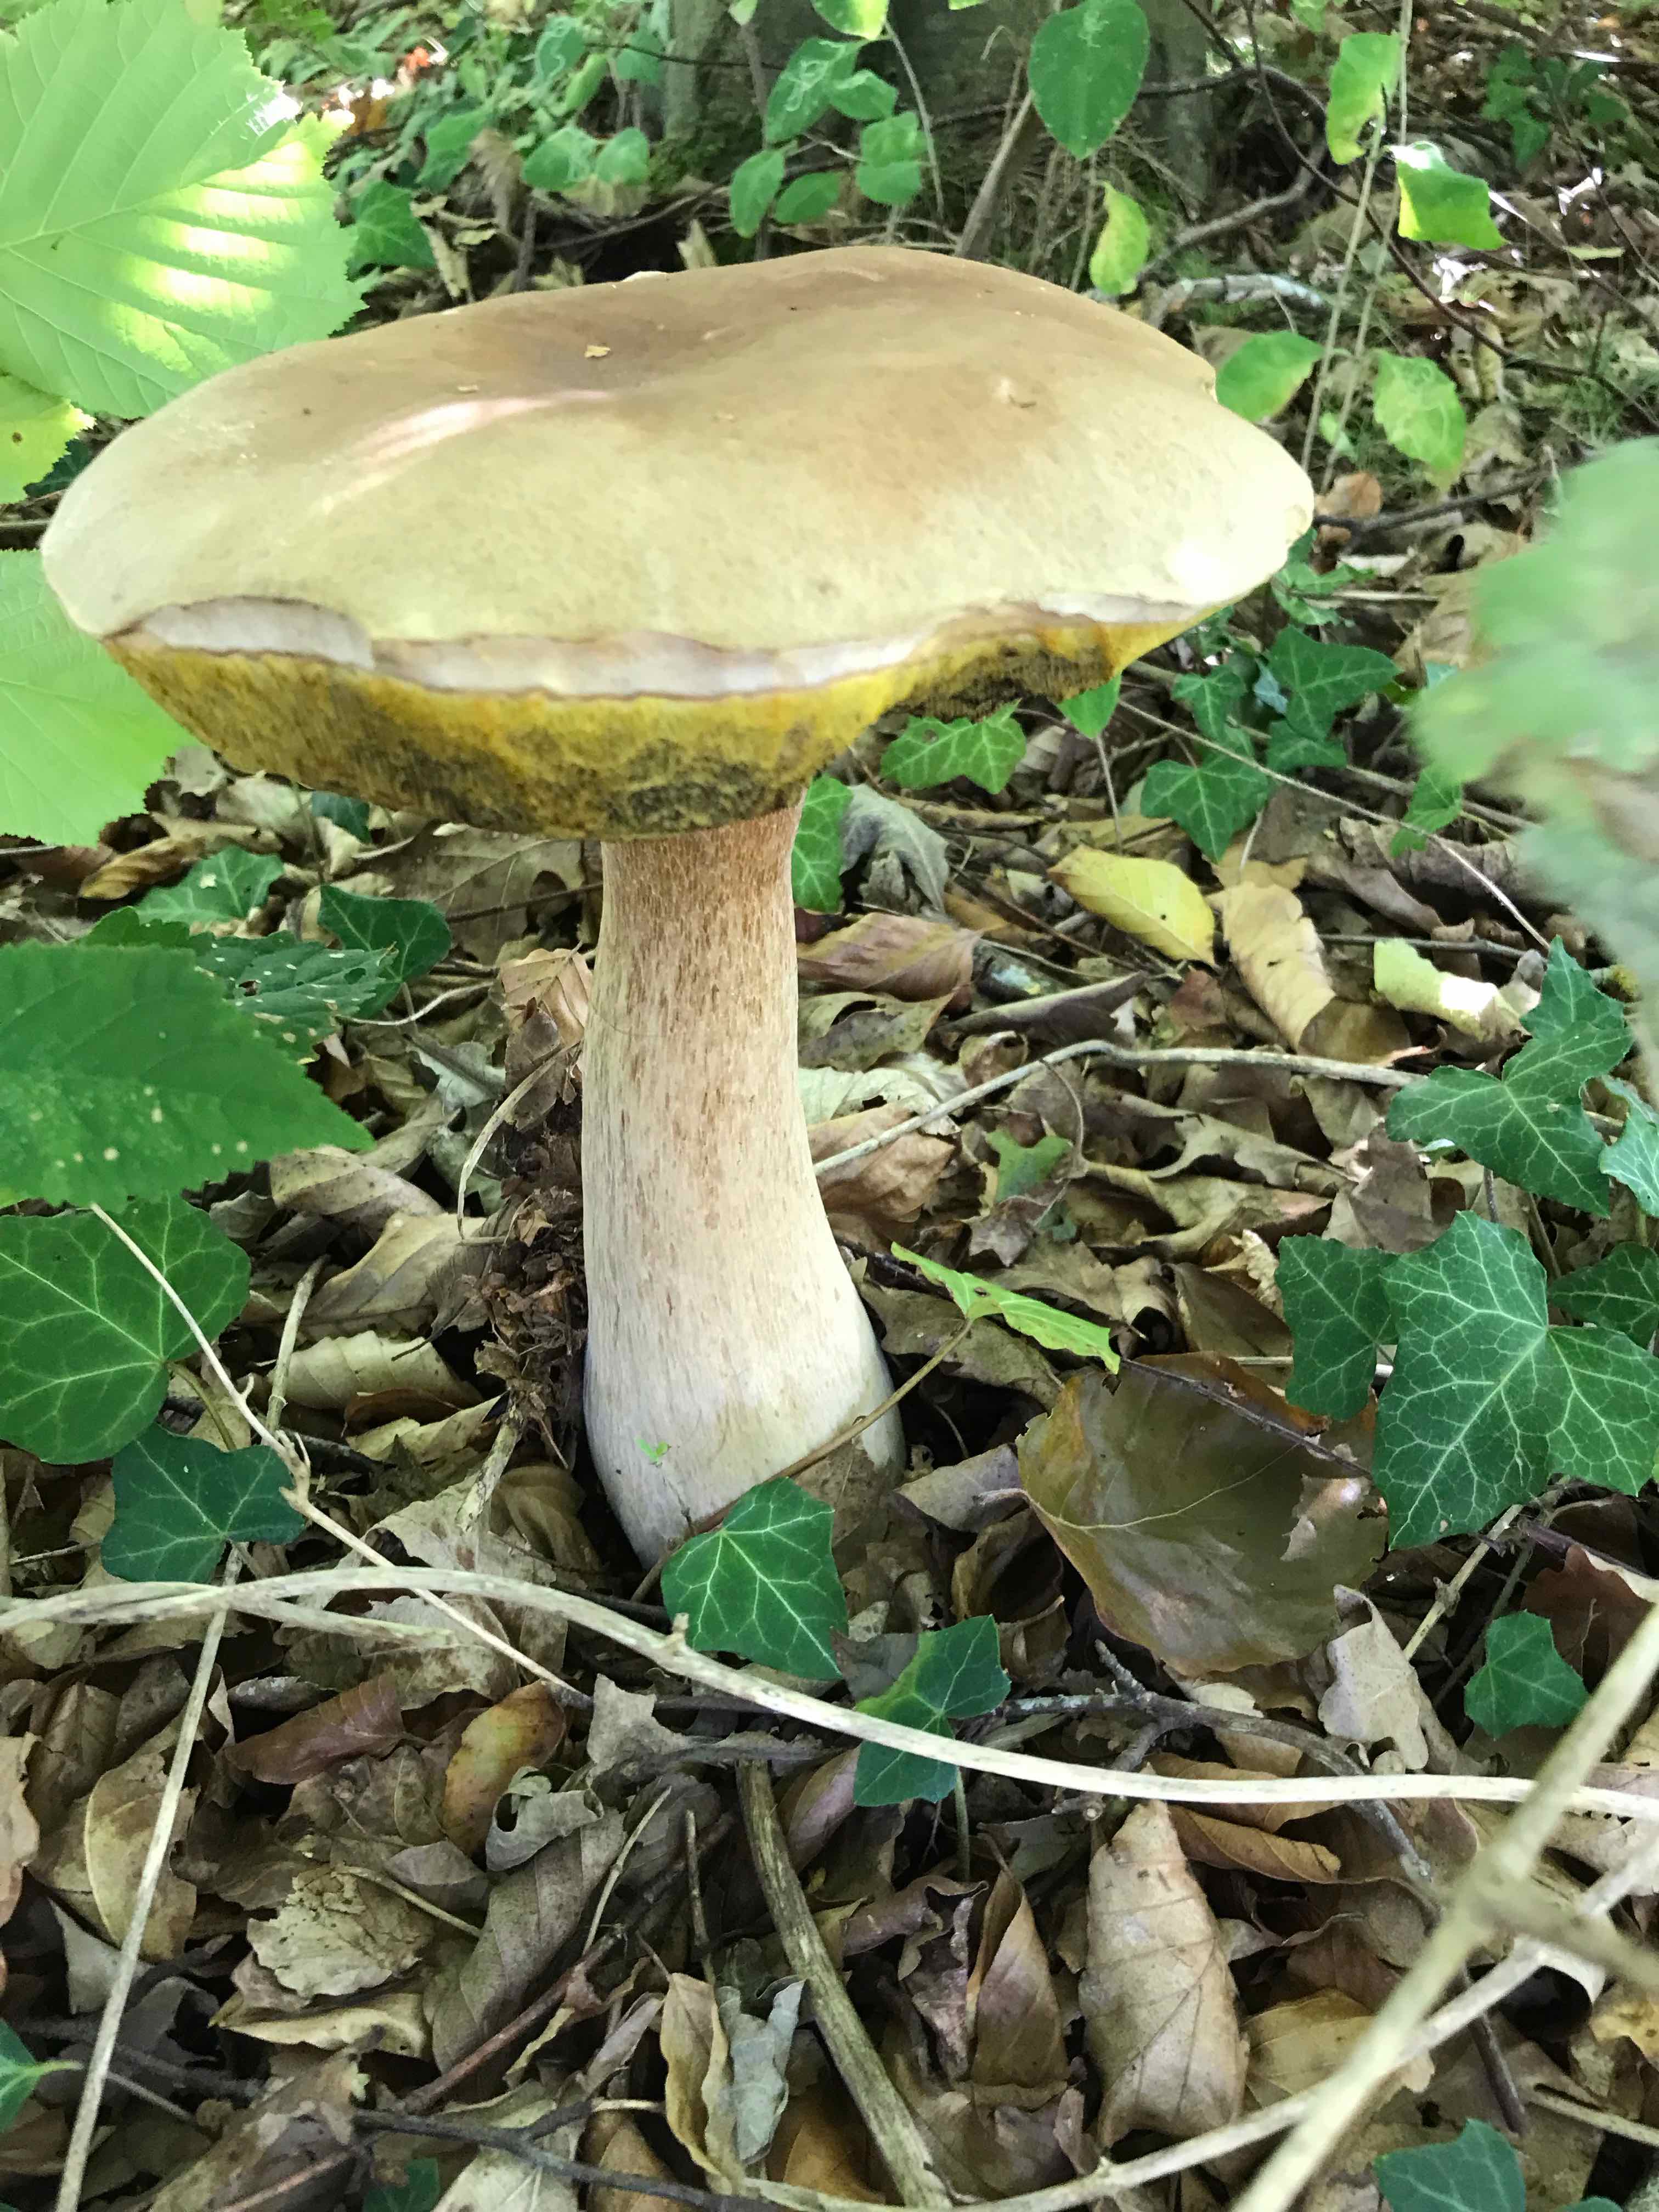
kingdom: Fungi
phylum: Basidiomycota
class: Agaricomycetes
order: Boletales
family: Boletaceae
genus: Boletus
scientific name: Boletus edulis
